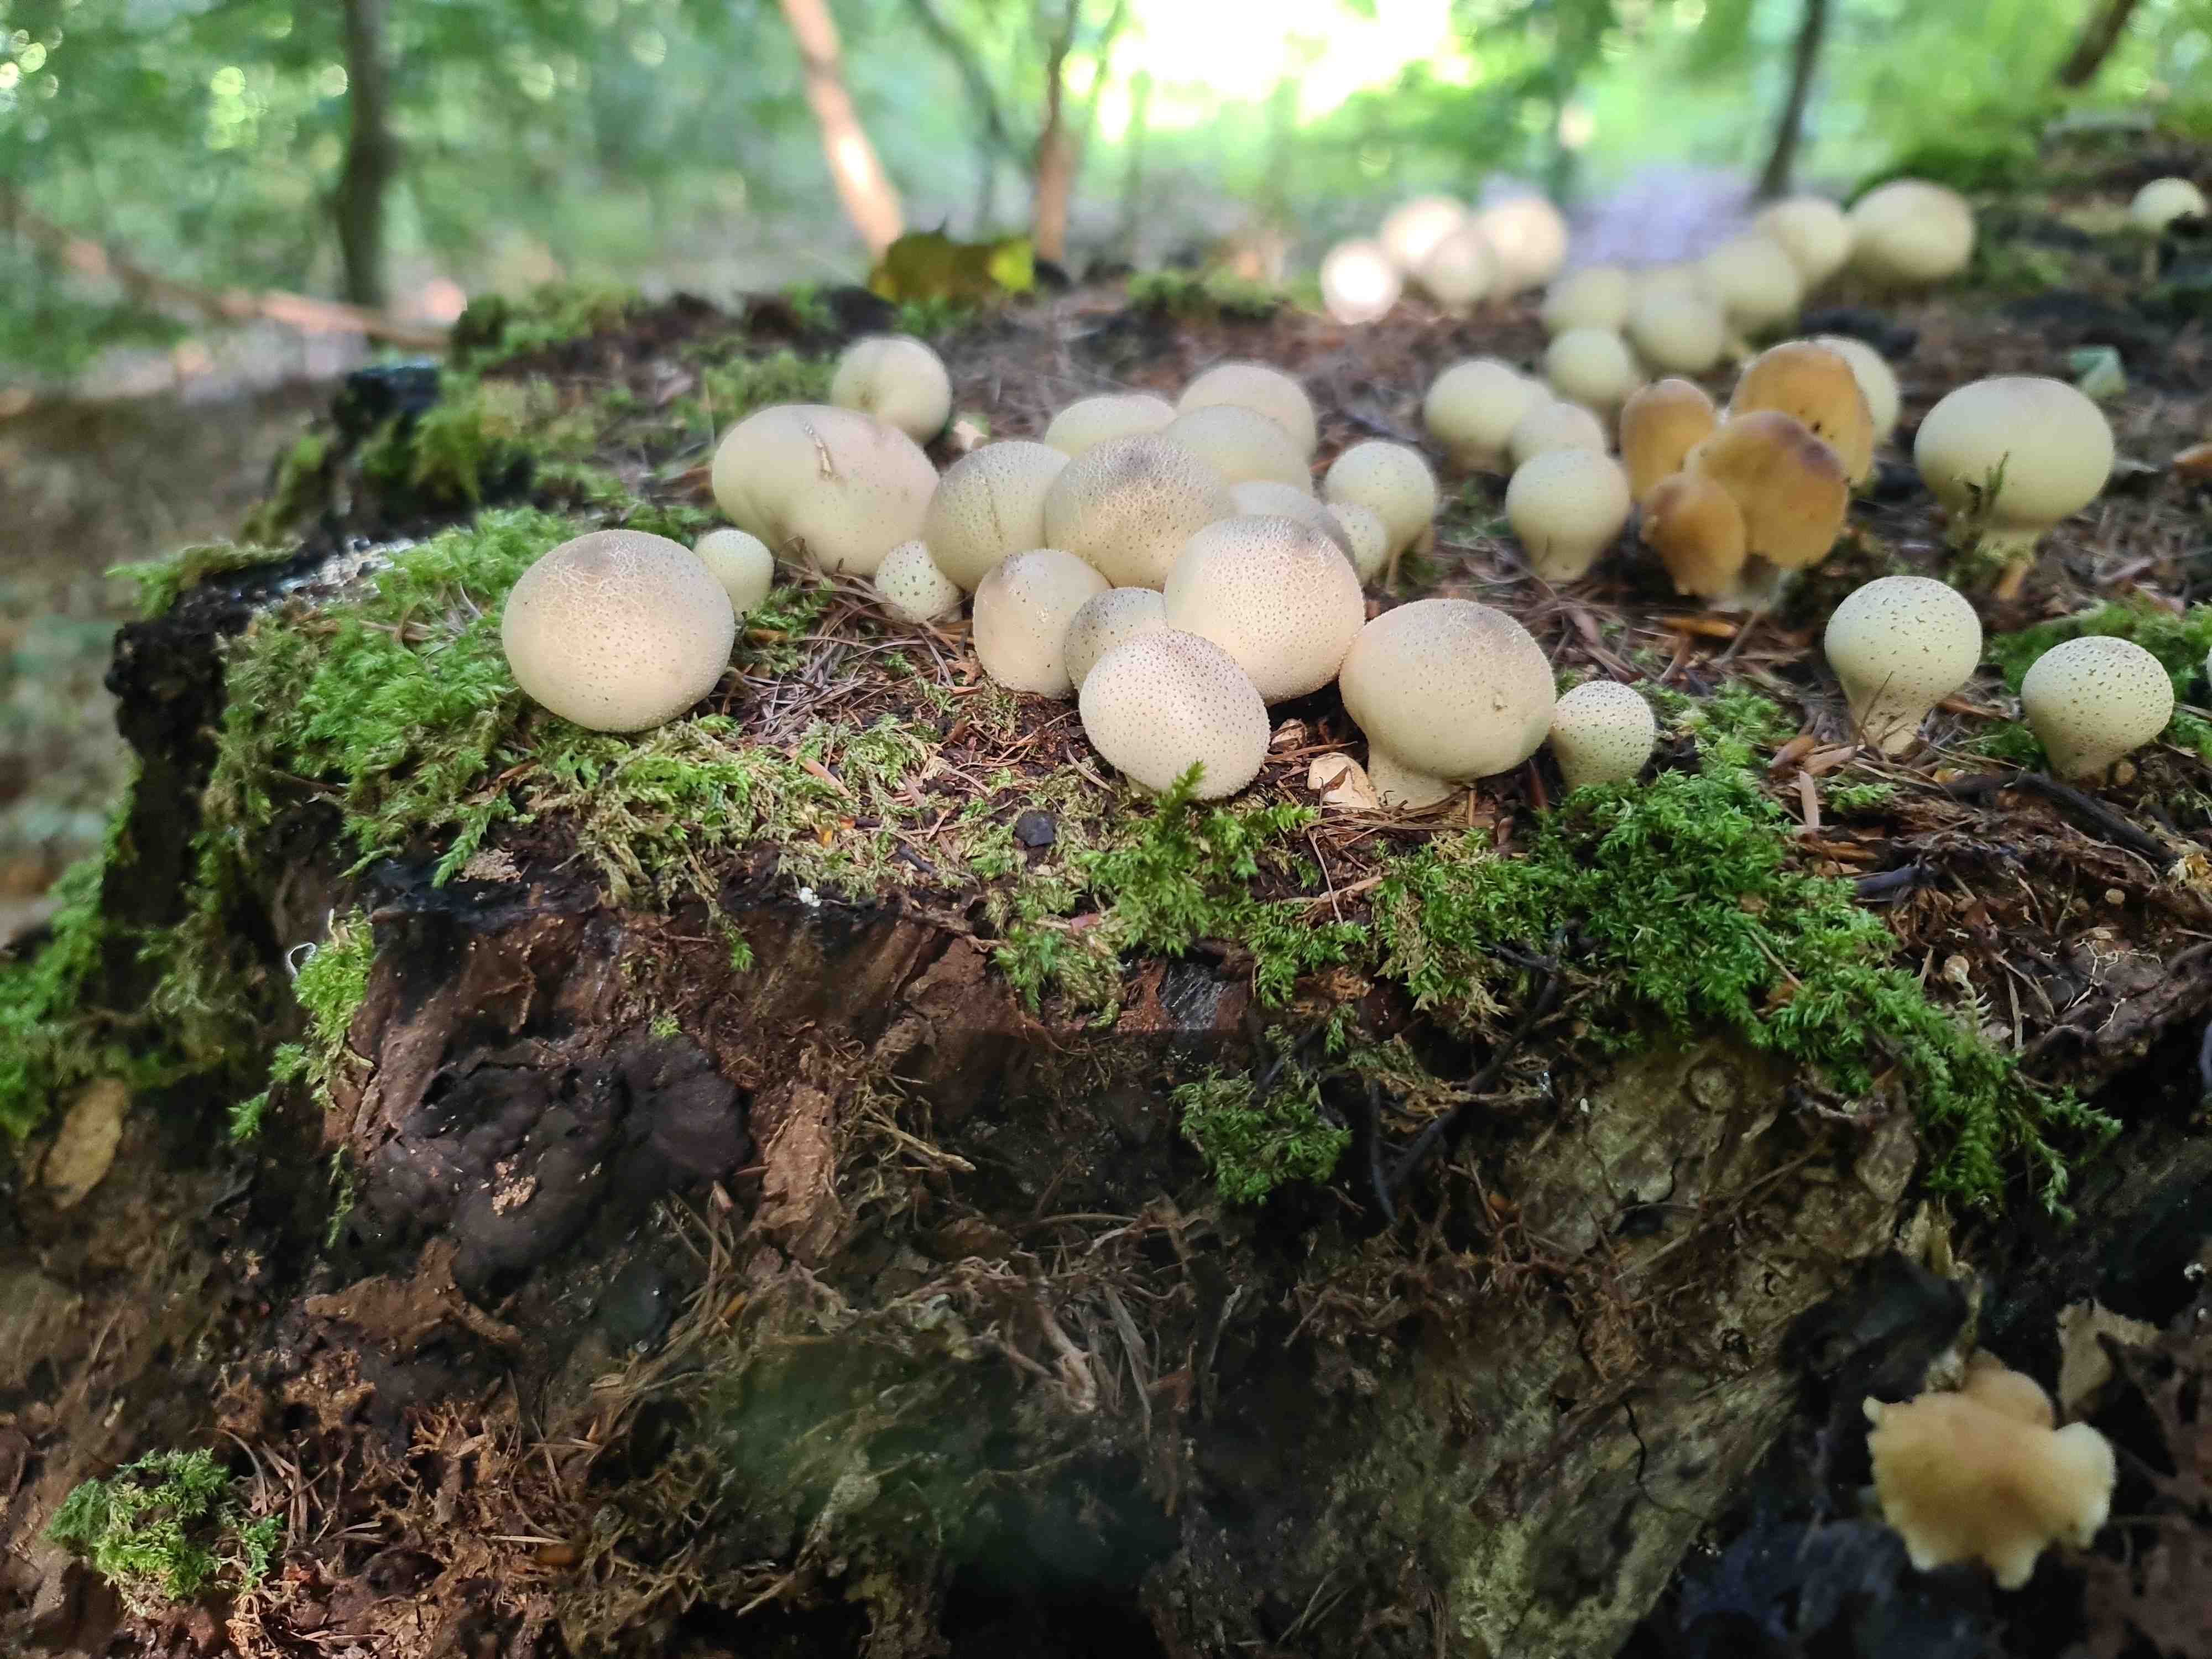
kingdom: Fungi
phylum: Basidiomycota
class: Agaricomycetes
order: Agaricales
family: Lycoperdaceae
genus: Apioperdon
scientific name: Apioperdon pyriforme
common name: pære-støvbold
